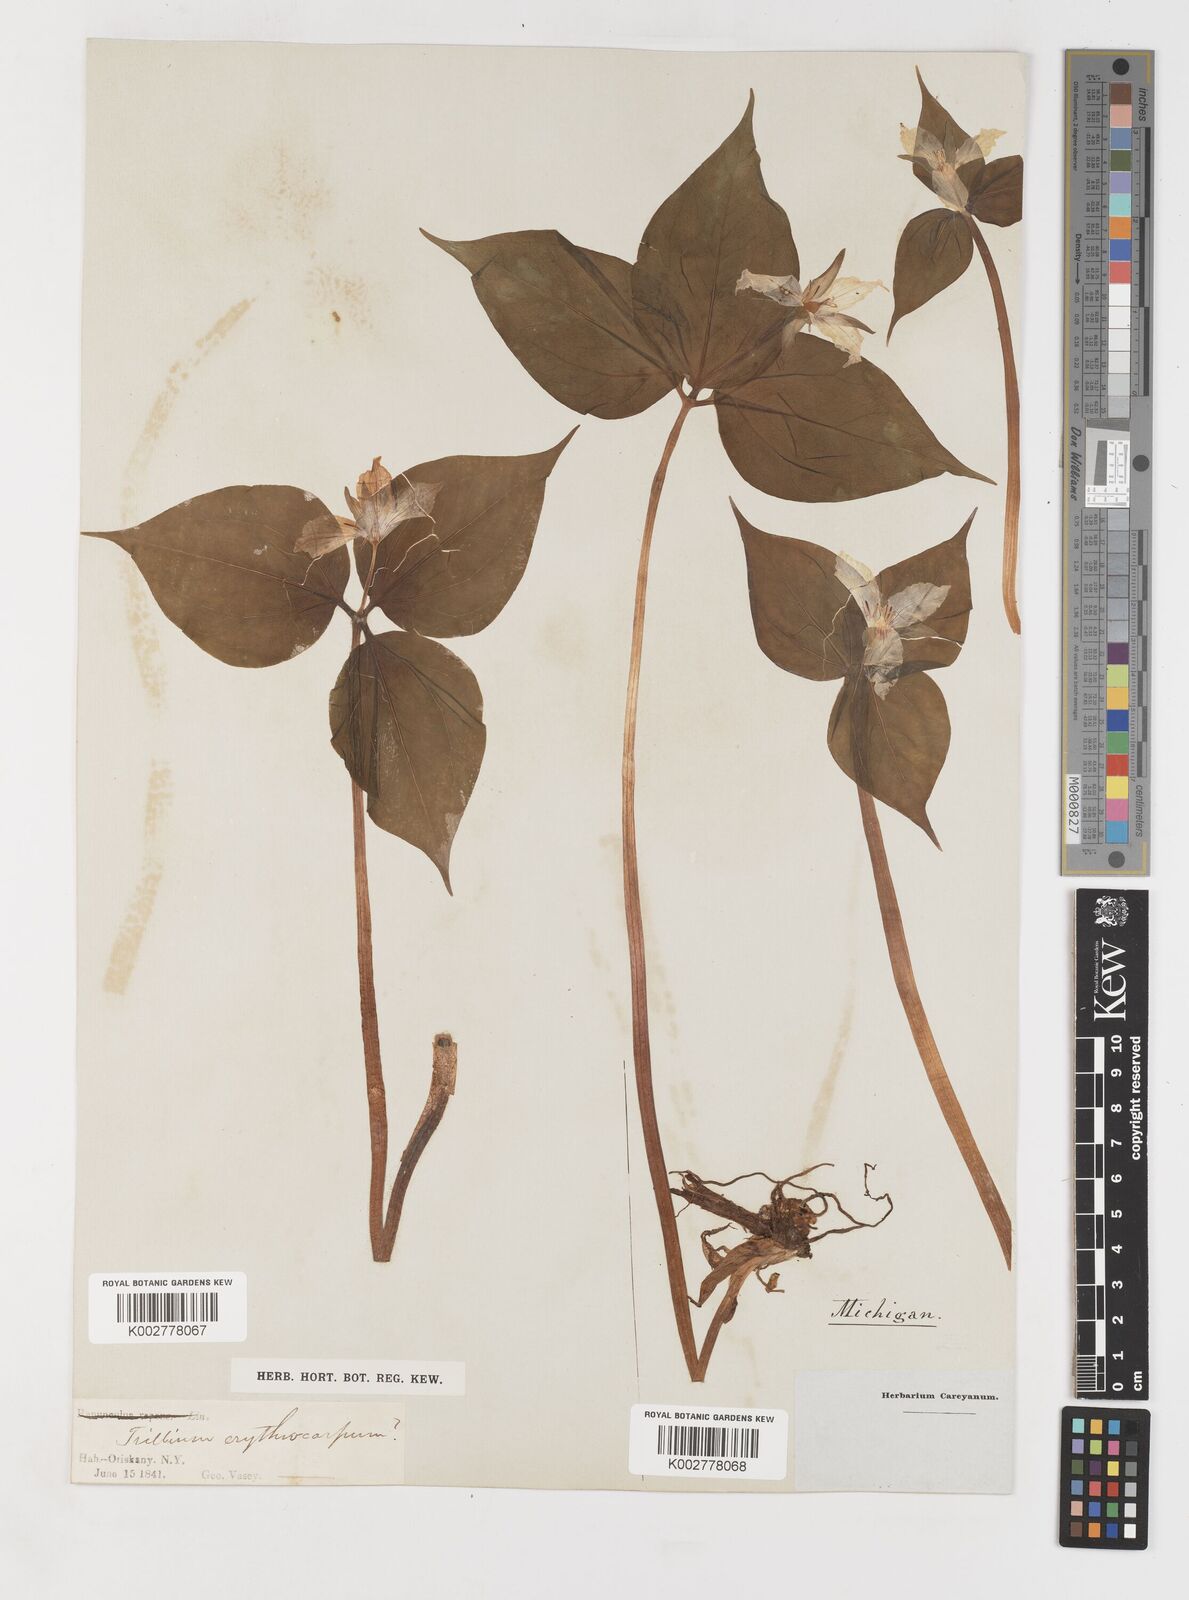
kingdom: Plantae
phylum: Tracheophyta
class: Liliopsida
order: Liliales
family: Melanthiaceae
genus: Trillium
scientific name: Trillium undulatum
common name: Paint trillium
